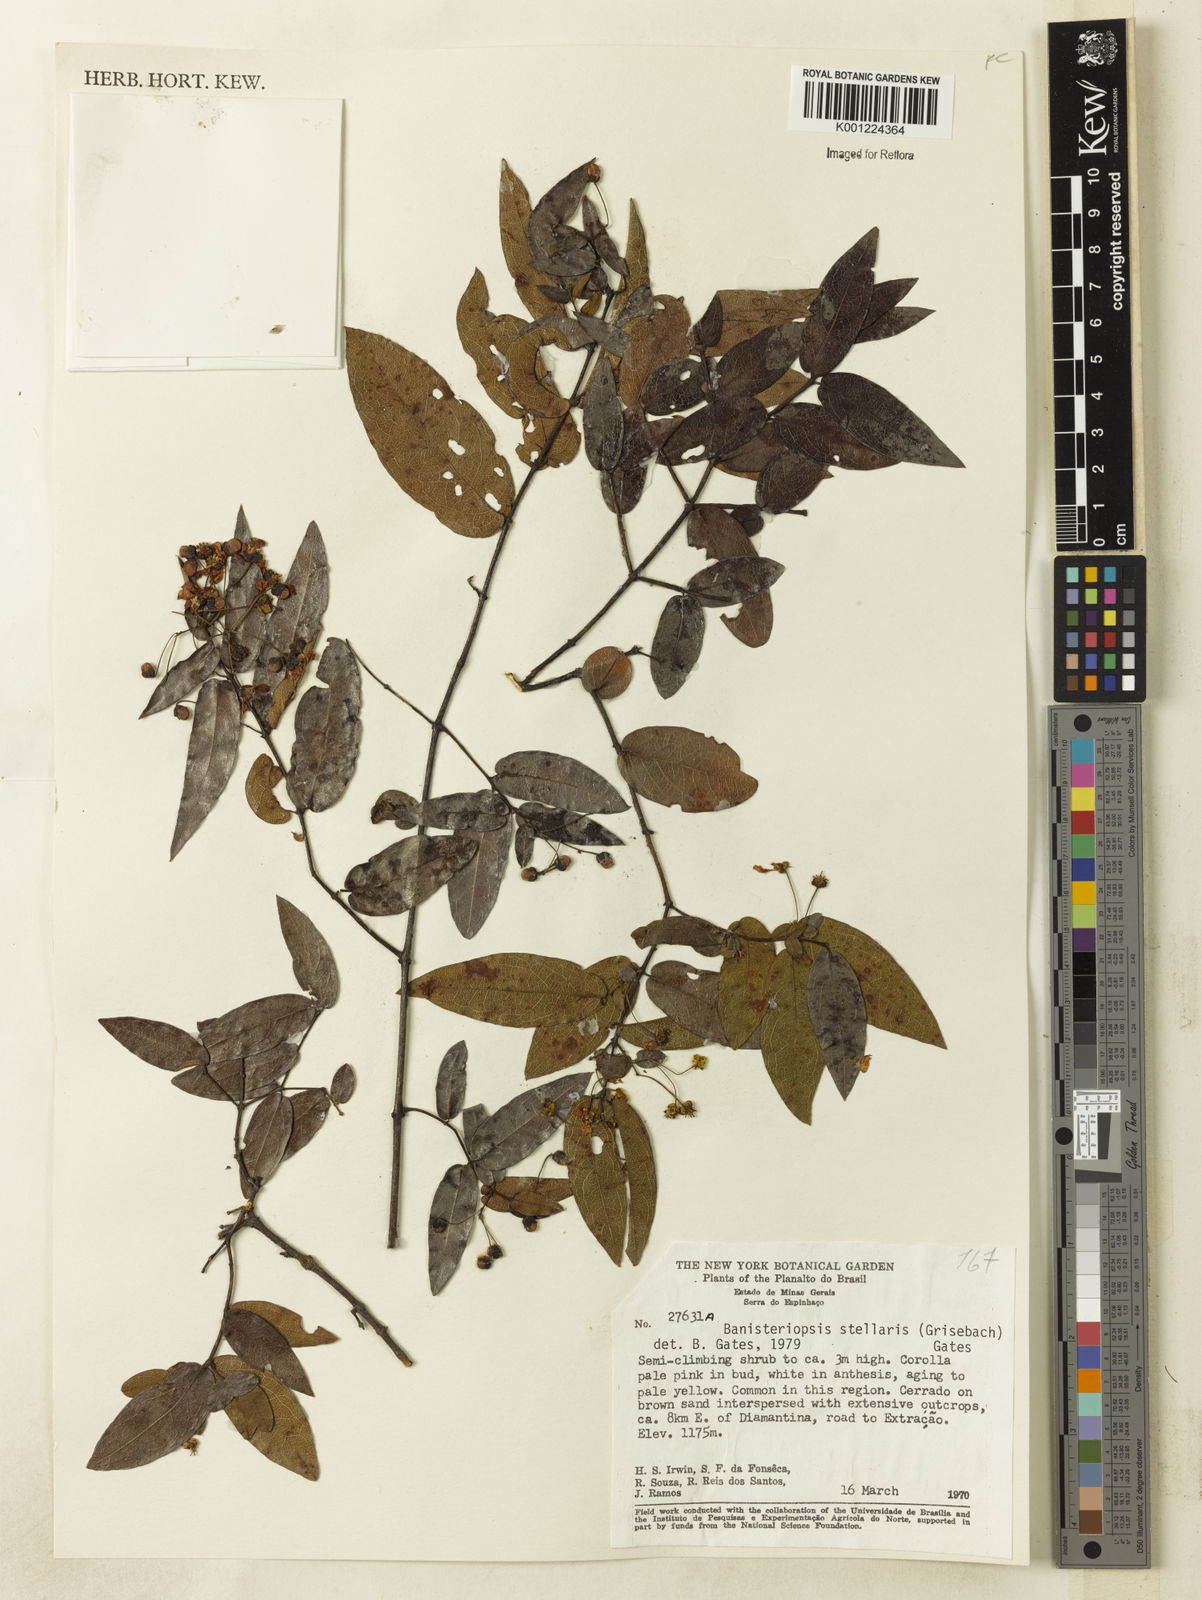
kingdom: Plantae
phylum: Tracheophyta
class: Magnoliopsida
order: Malpighiales
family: Malpighiaceae
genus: Banisteriopsis
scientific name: Banisteriopsis stellaris
